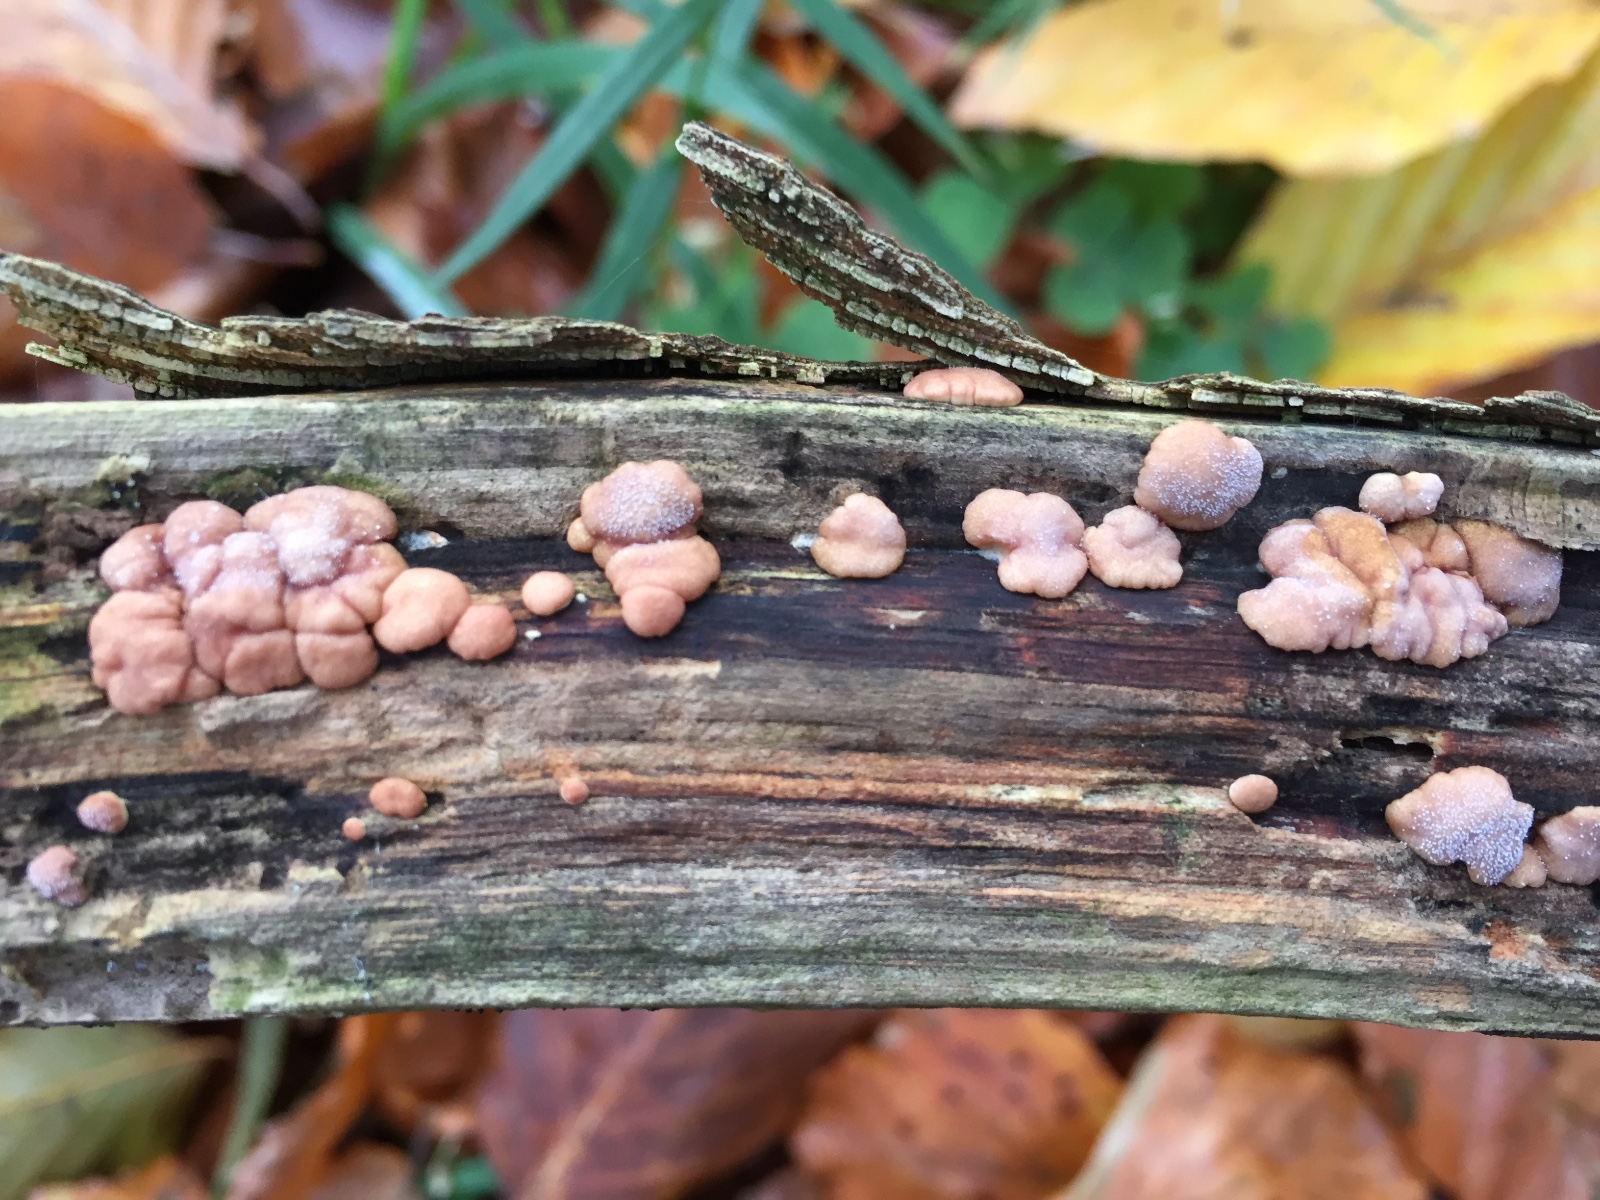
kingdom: Fungi
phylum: Ascomycota
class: Sordariomycetes
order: Hypocreales
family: Hypocreaceae
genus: Trichoderma
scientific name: Trichoderma europaeum
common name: rosabrun kødkerne
